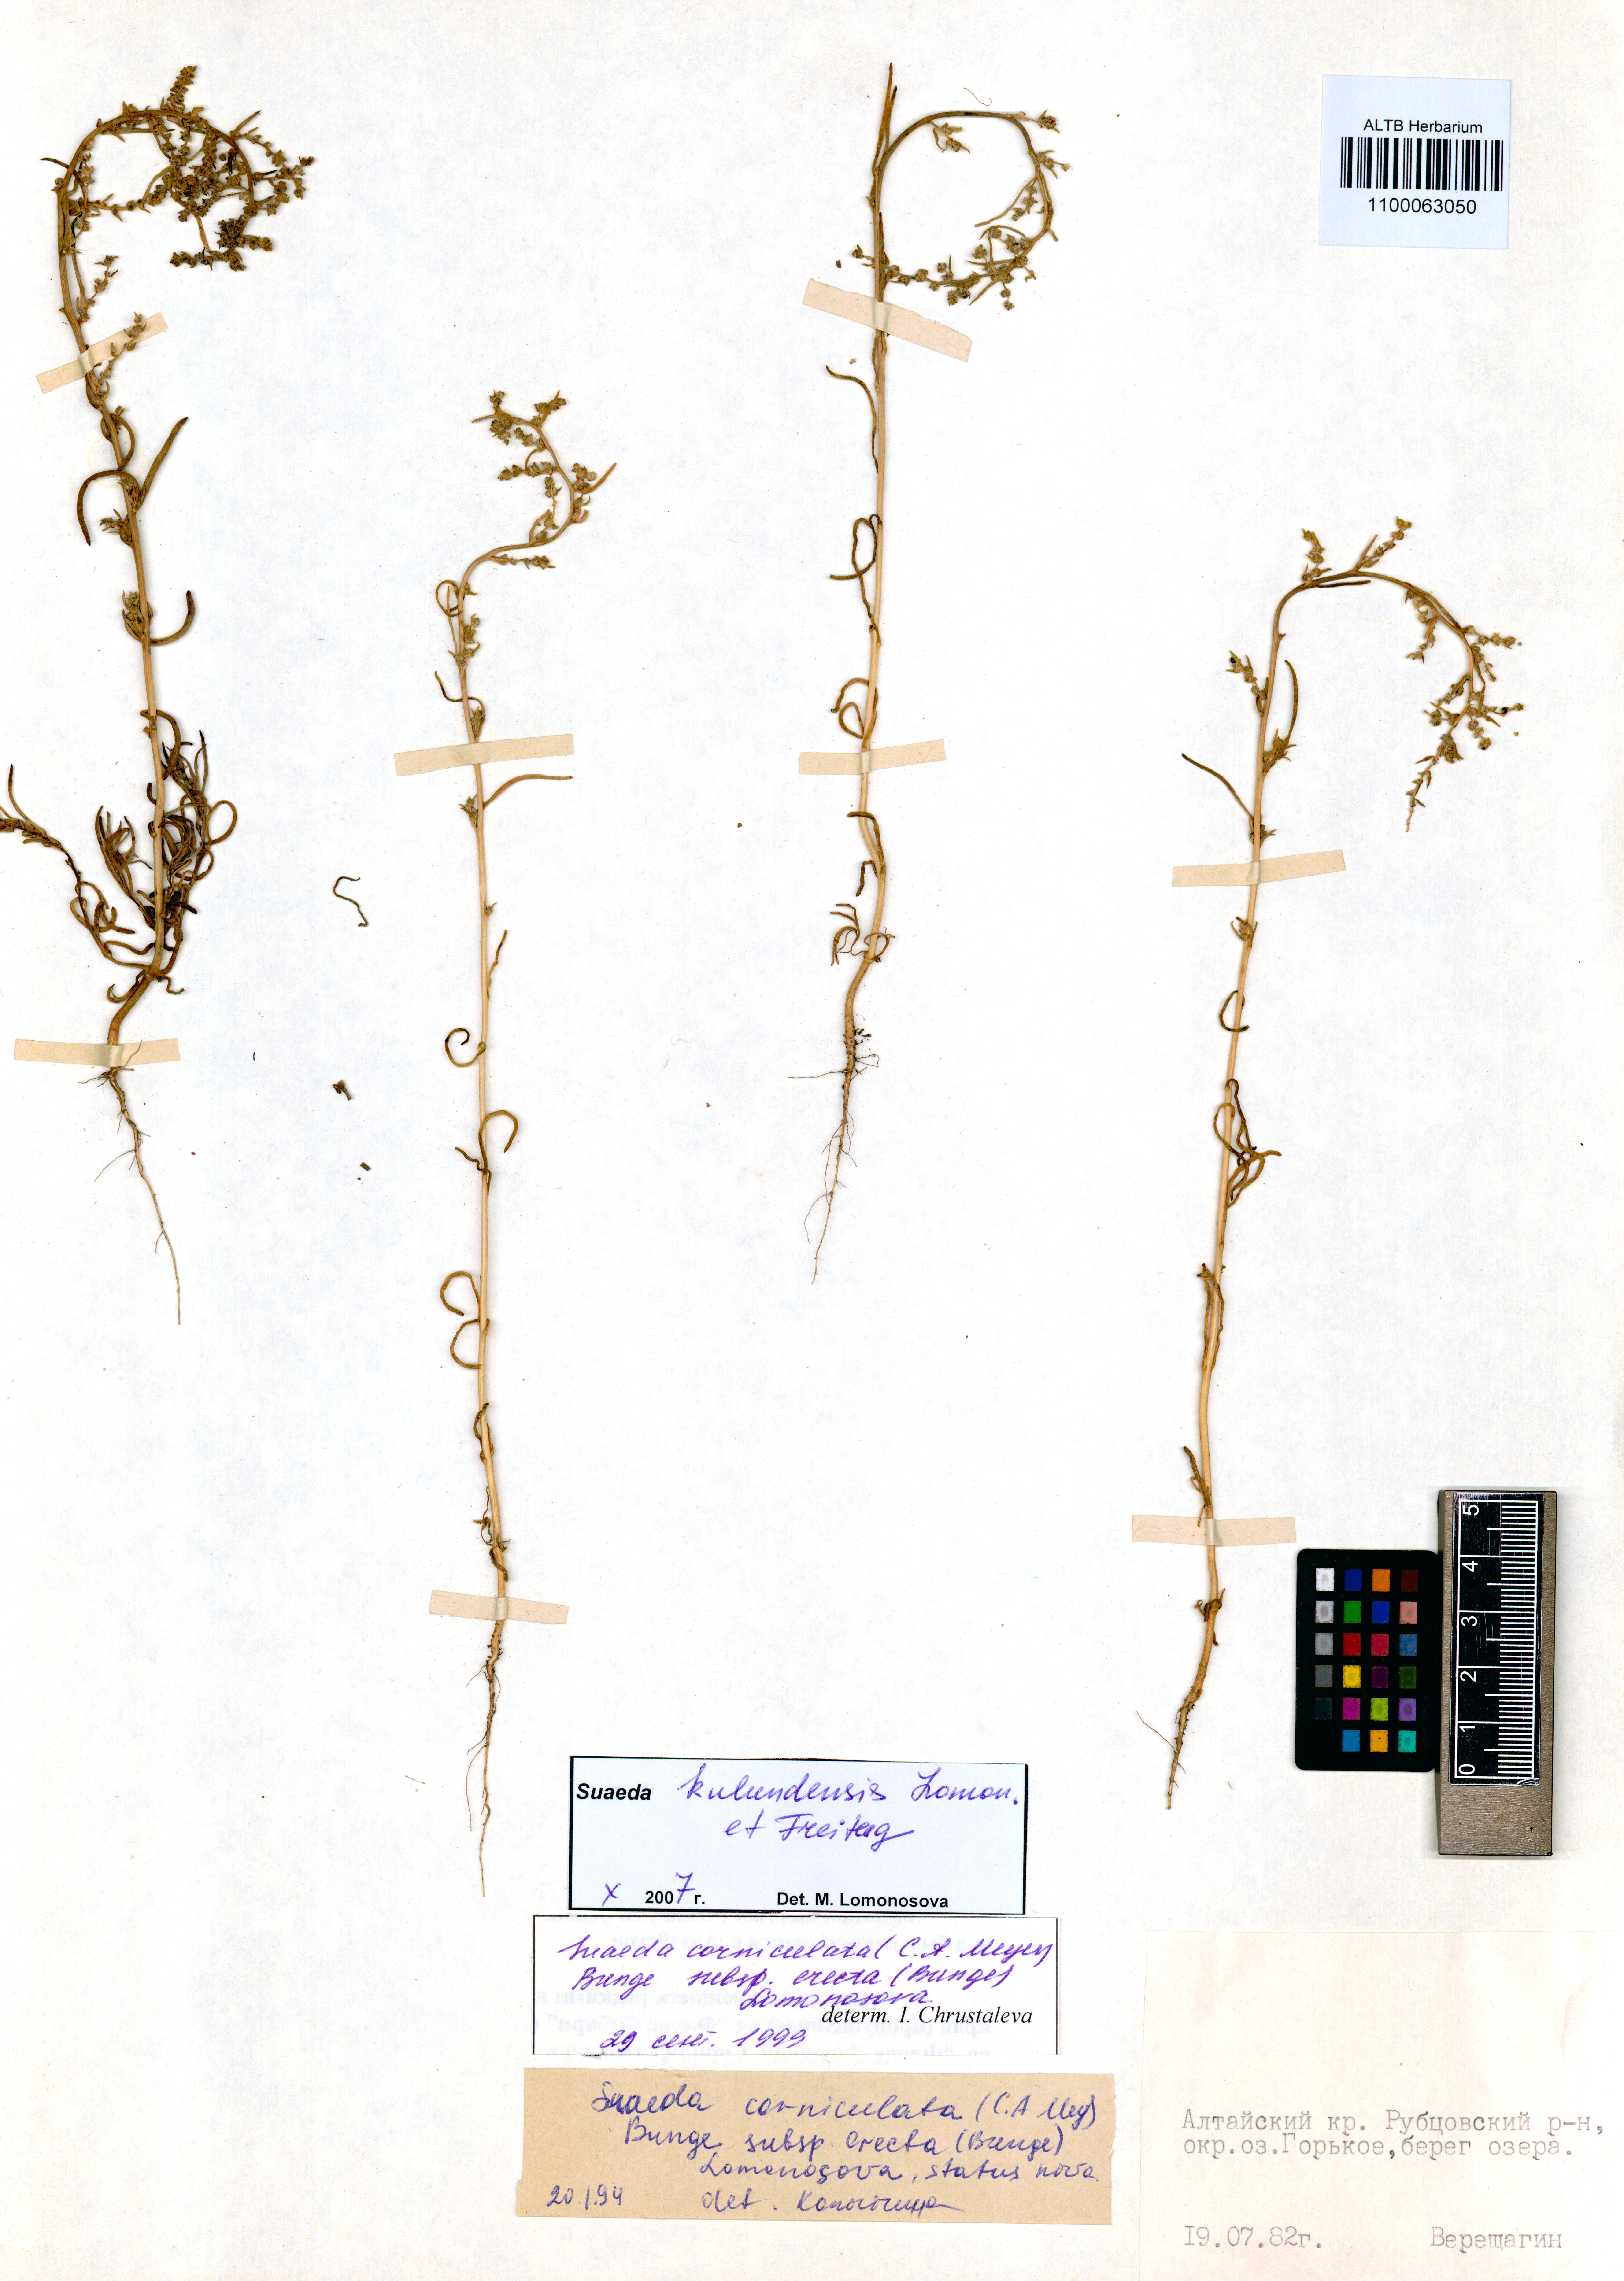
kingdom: Plantae
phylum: Tracheophyta
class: Magnoliopsida
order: Caryophyllales
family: Amaranthaceae
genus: Suaeda
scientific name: Suaeda kulundensis
